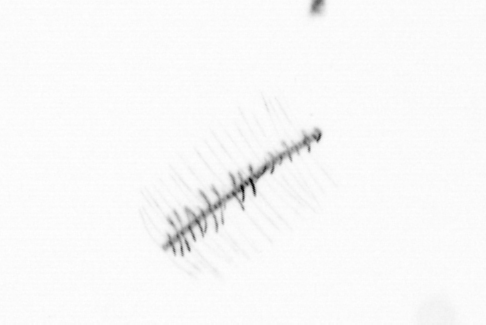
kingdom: Chromista
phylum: Ochrophyta
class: Bacillariophyceae
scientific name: Bacillariophyceae
